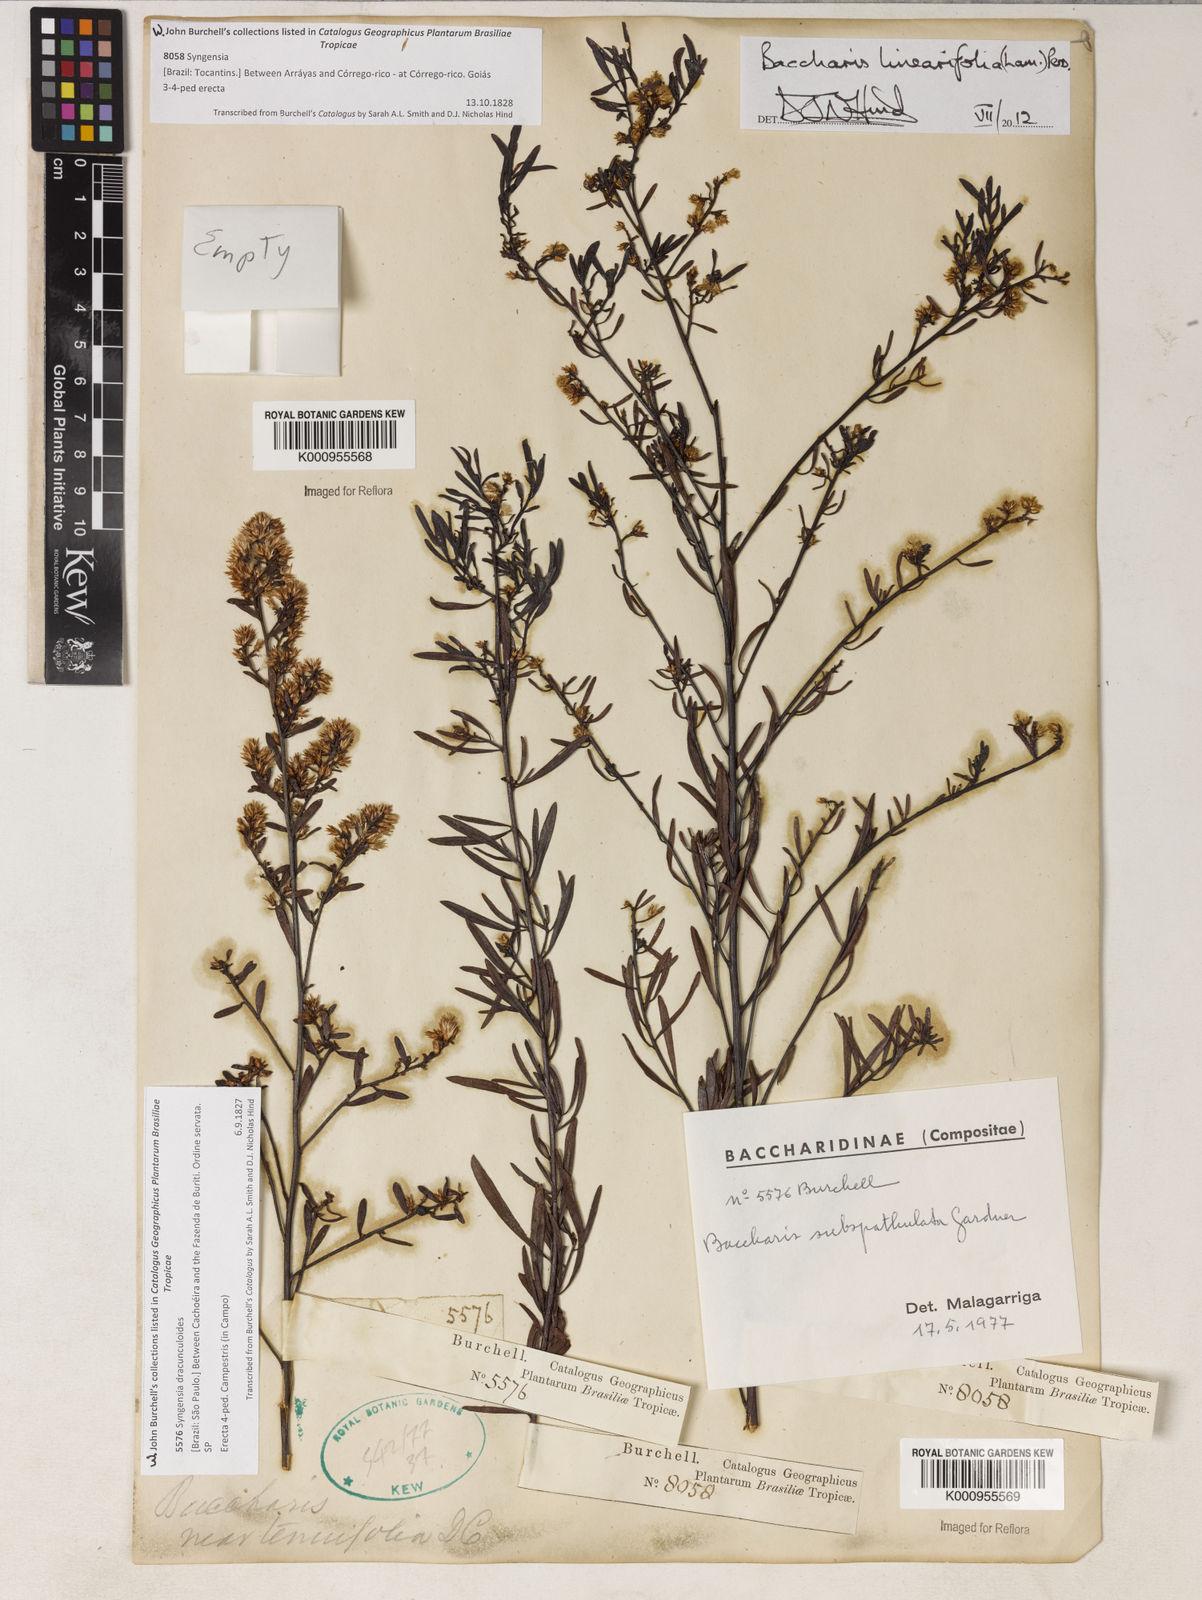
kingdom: Plantae
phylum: Tracheophyta
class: Magnoliopsida
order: Asterales
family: Asteraceae
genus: Baccharis
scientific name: Baccharis linearifolia
